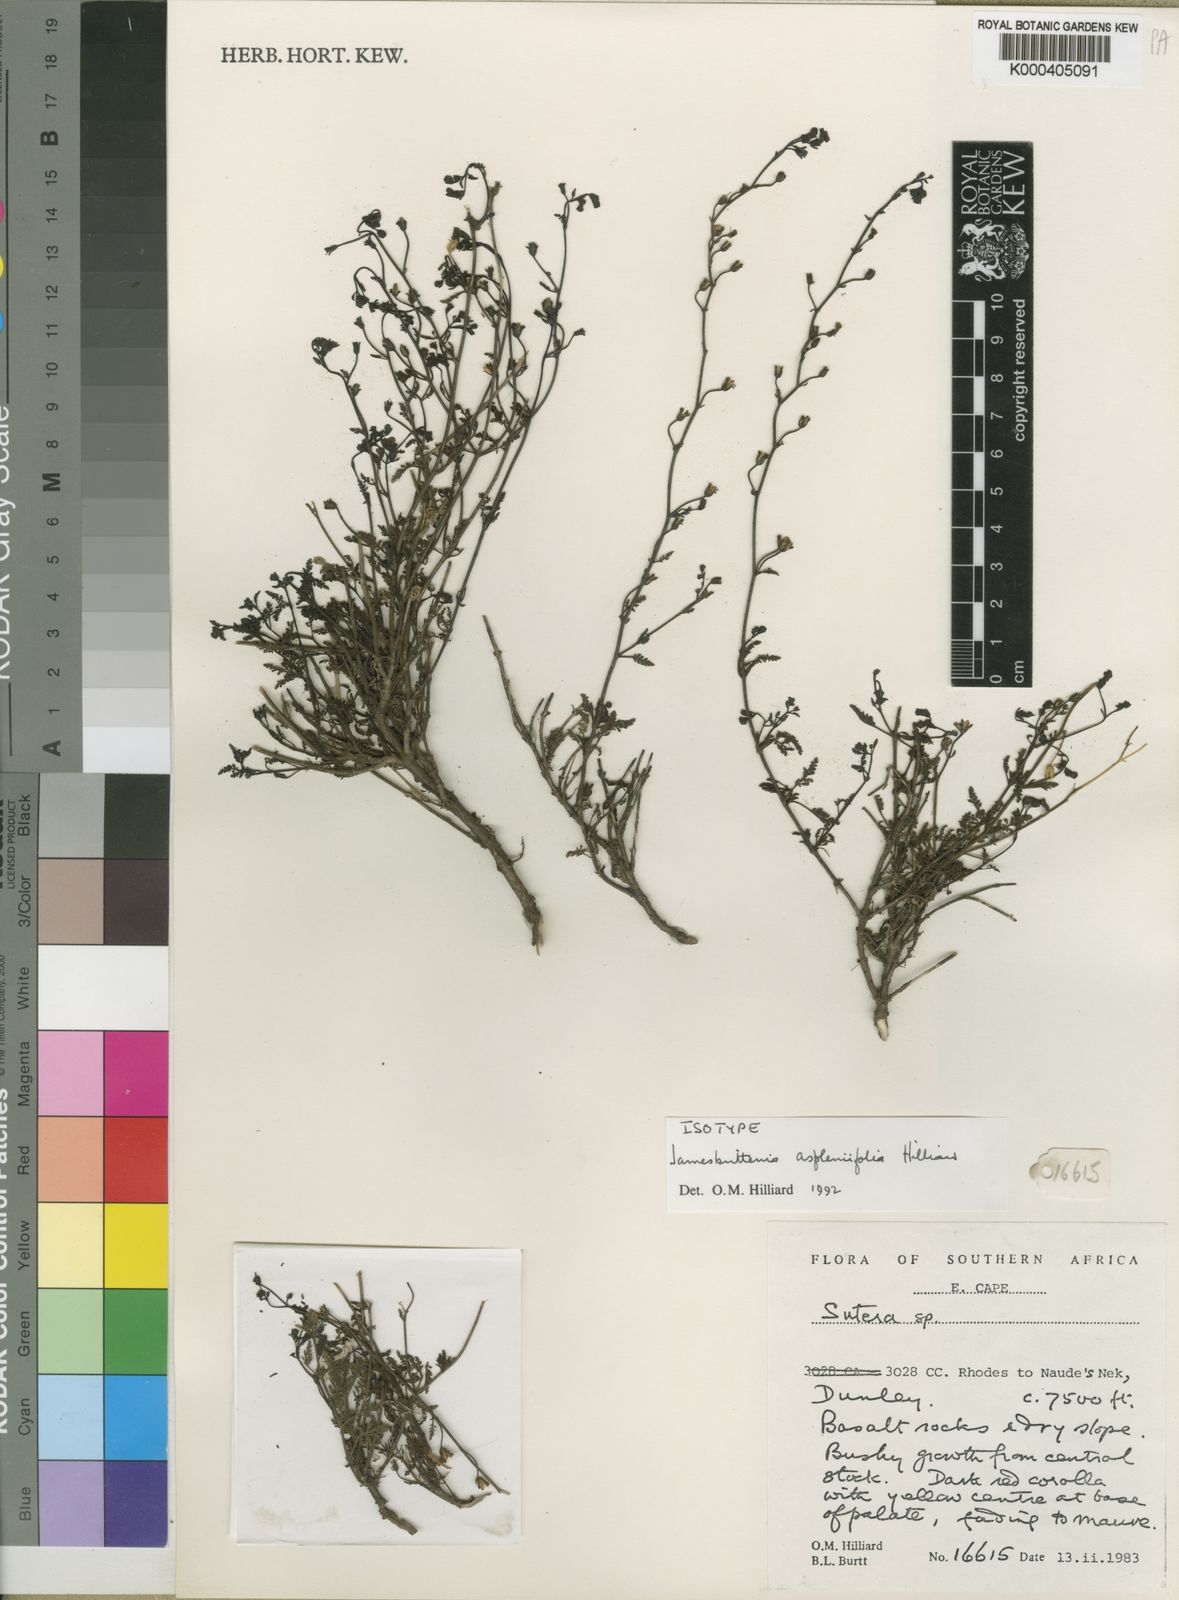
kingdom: Plantae
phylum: Tracheophyta
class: Magnoliopsida
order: Lamiales
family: Scrophulariaceae
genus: Jamesbrittenia
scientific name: Jamesbrittenia aspleniifolia
